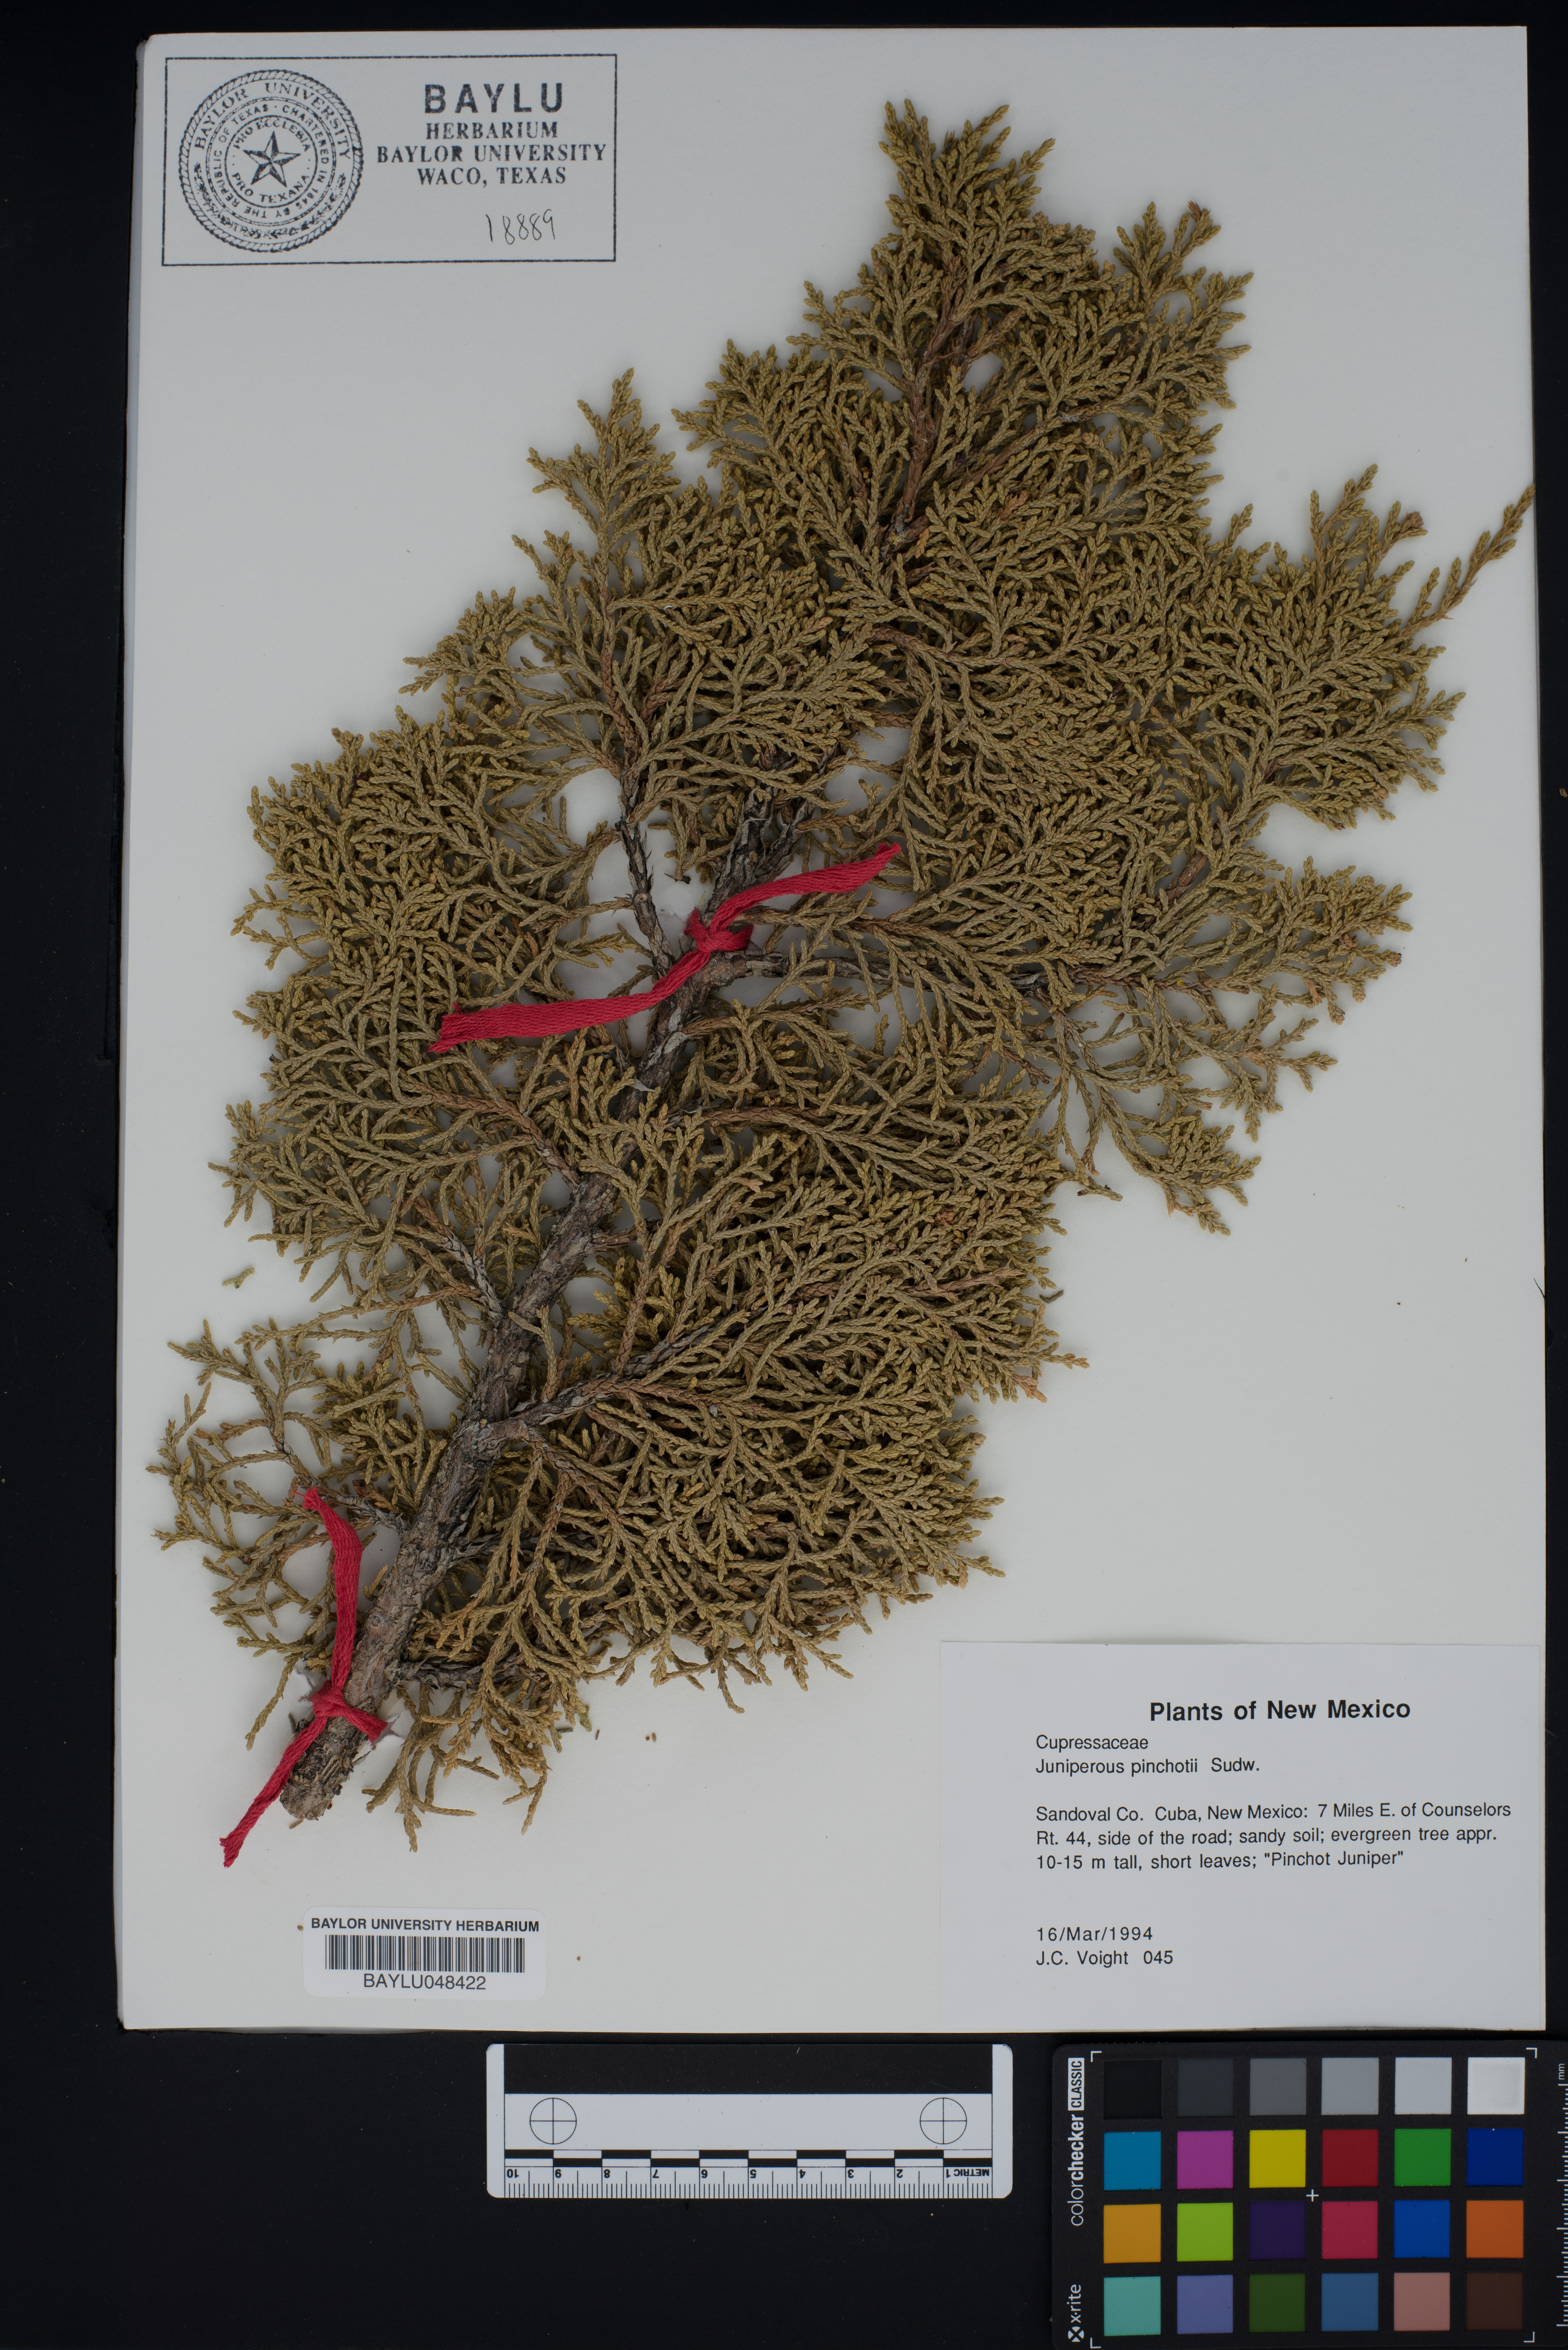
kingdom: Plantae
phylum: Tracheophyta
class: Pinopsida
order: Pinales
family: Cupressaceae
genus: Juniperus
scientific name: Juniperus pinchotii
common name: Pinchot juniper
